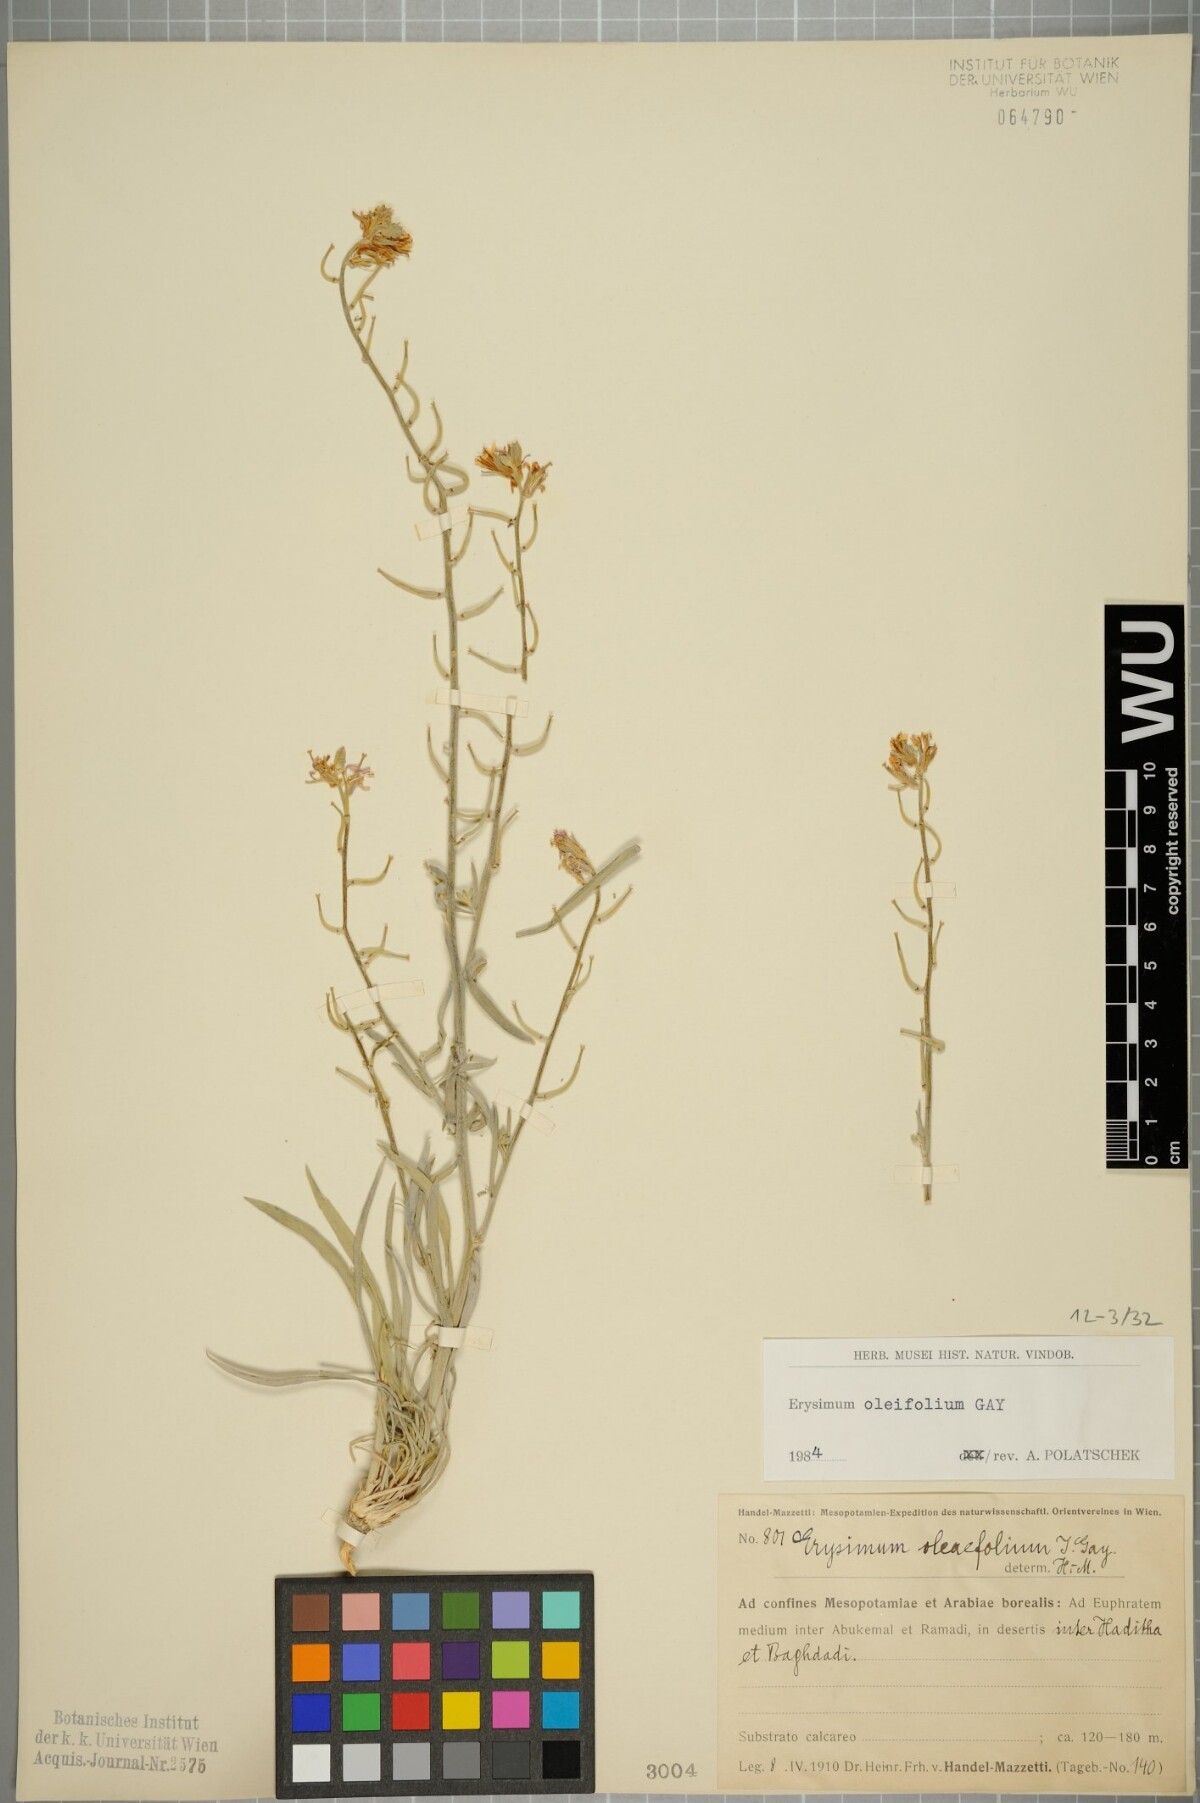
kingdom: Plantae
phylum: Tracheophyta
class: Magnoliopsida
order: Brassicales
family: Brassicaceae
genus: Erysimum
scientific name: Erysimum oleifolium
